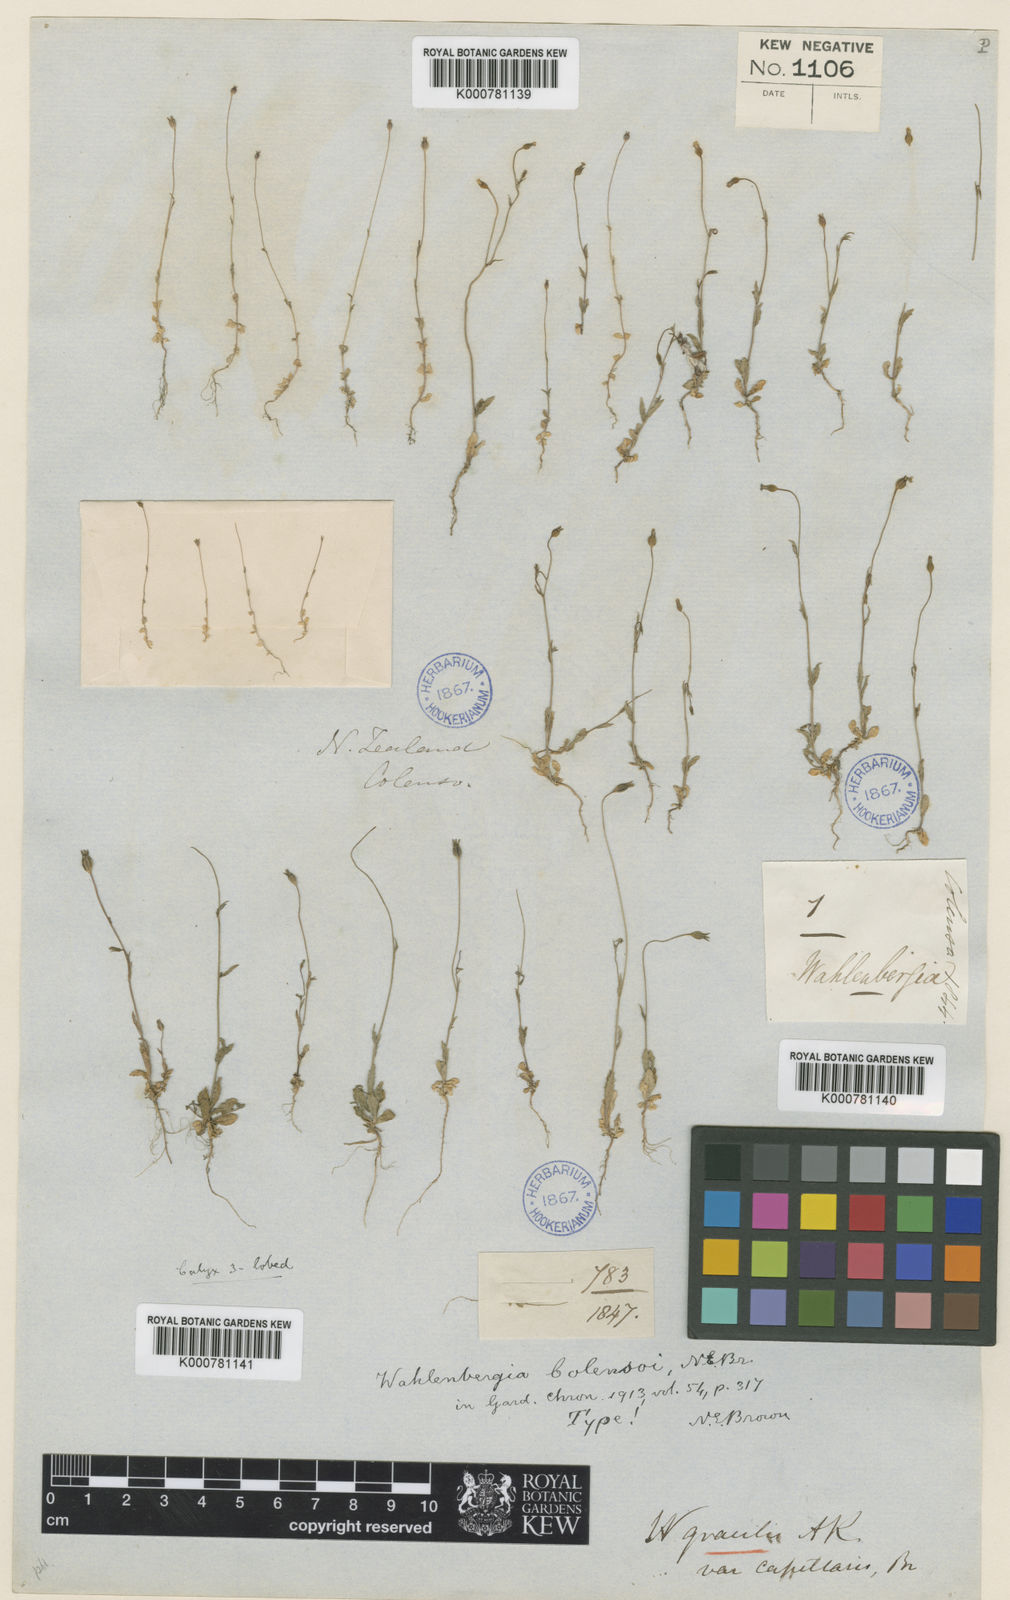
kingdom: Plantae
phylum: Tracheophyta
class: Magnoliopsida
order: Asterales
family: Campanulaceae
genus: Wahlenbergia
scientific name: Wahlenbergia colensoi
